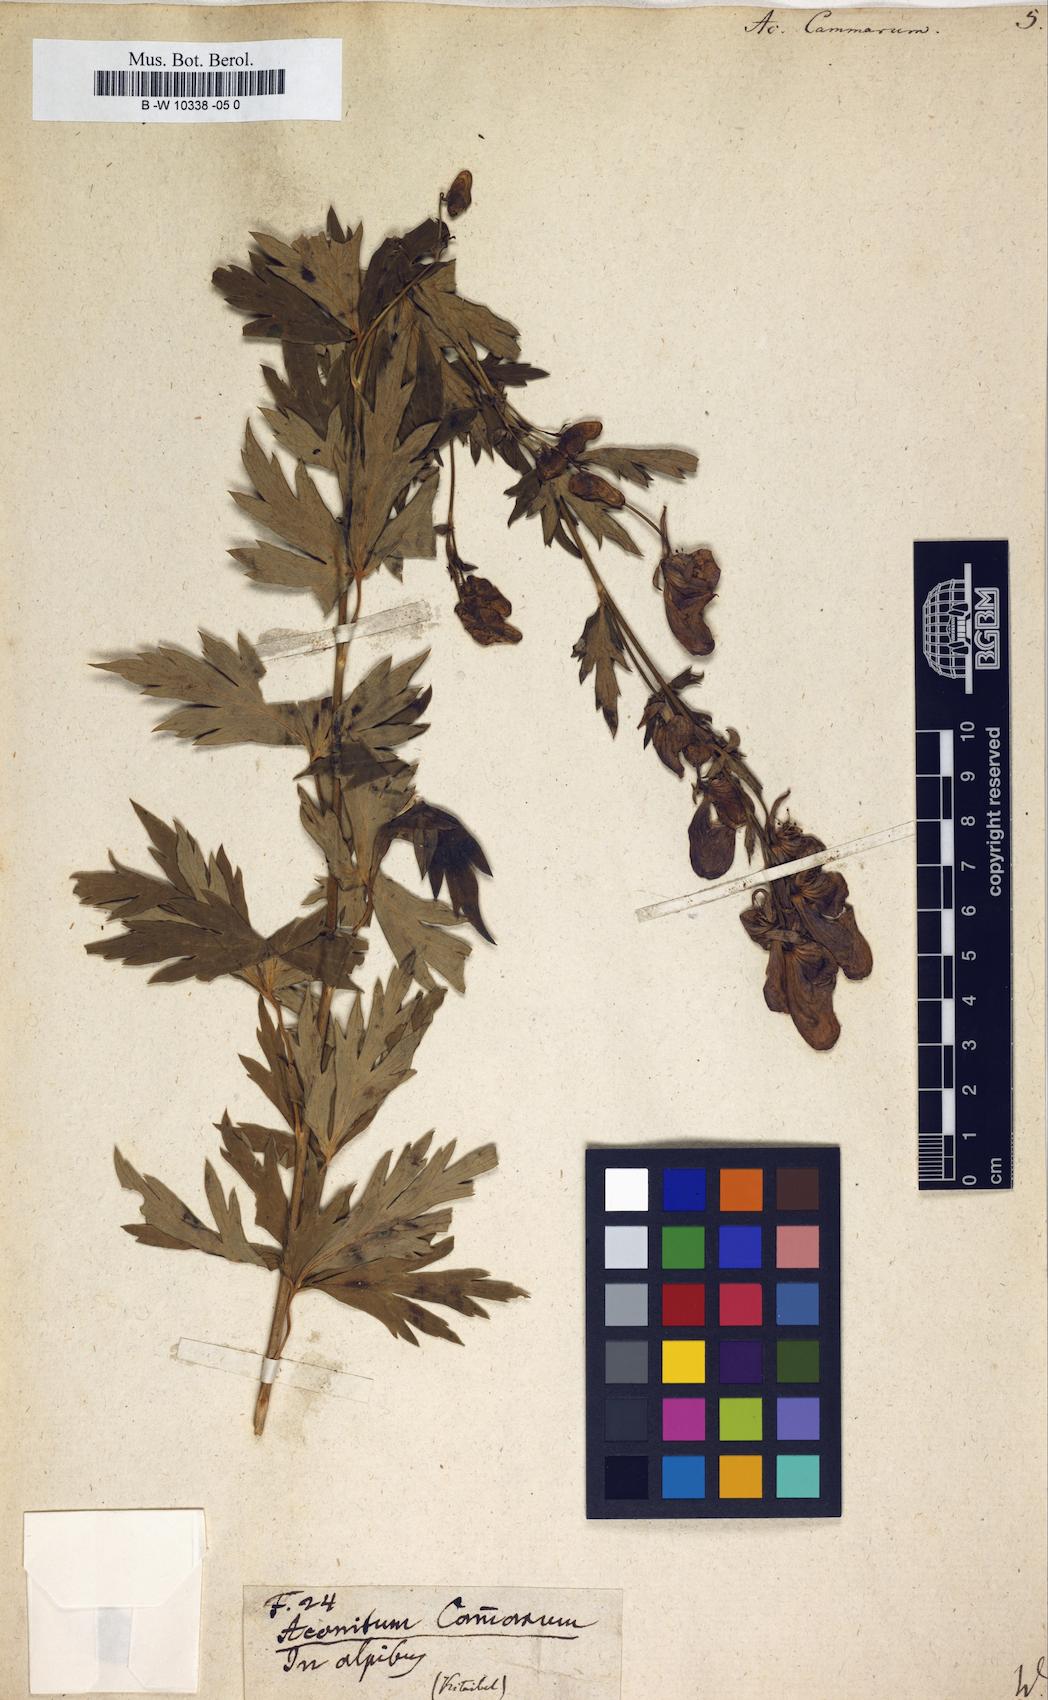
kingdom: Plantae
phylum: Tracheophyta
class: Magnoliopsida
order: Ranunculales
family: Ranunculaceae
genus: Aconitum
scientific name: Aconitum variegatum
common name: Manchurian monkshood
